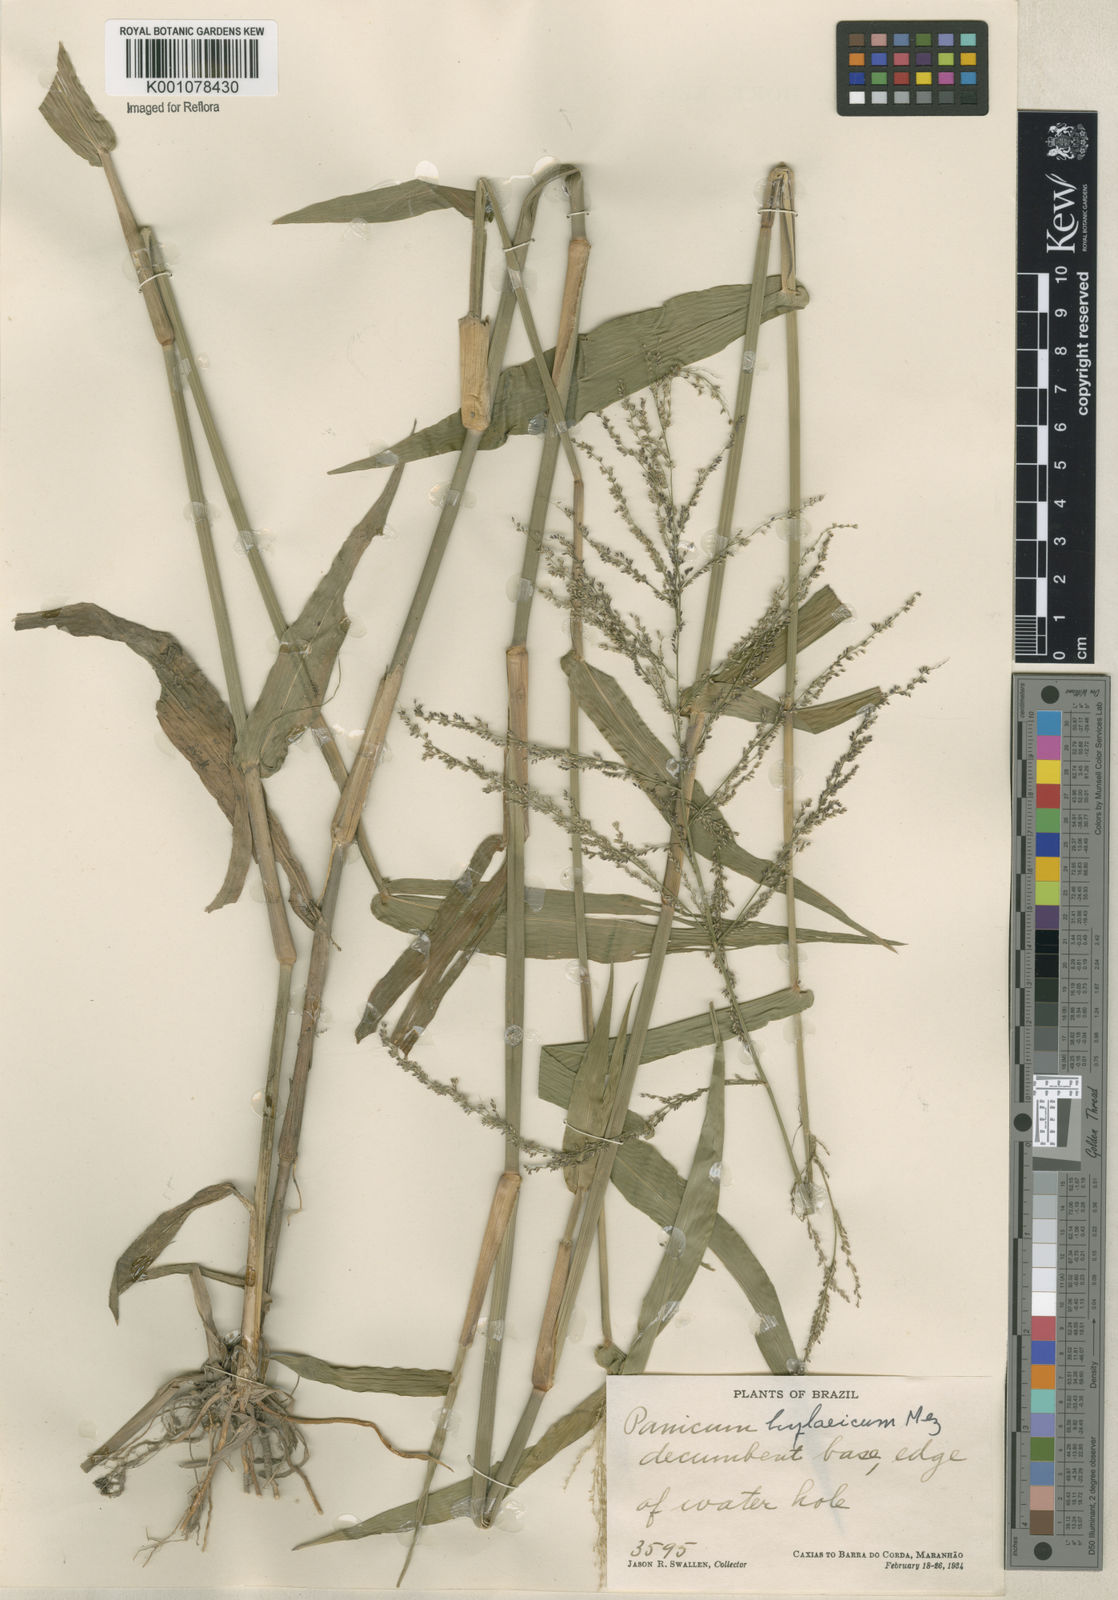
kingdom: Plantae
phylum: Tracheophyta
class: Liliopsida
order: Poales
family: Poaceae
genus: Rugoloa
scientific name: Rugoloa hylaeica
